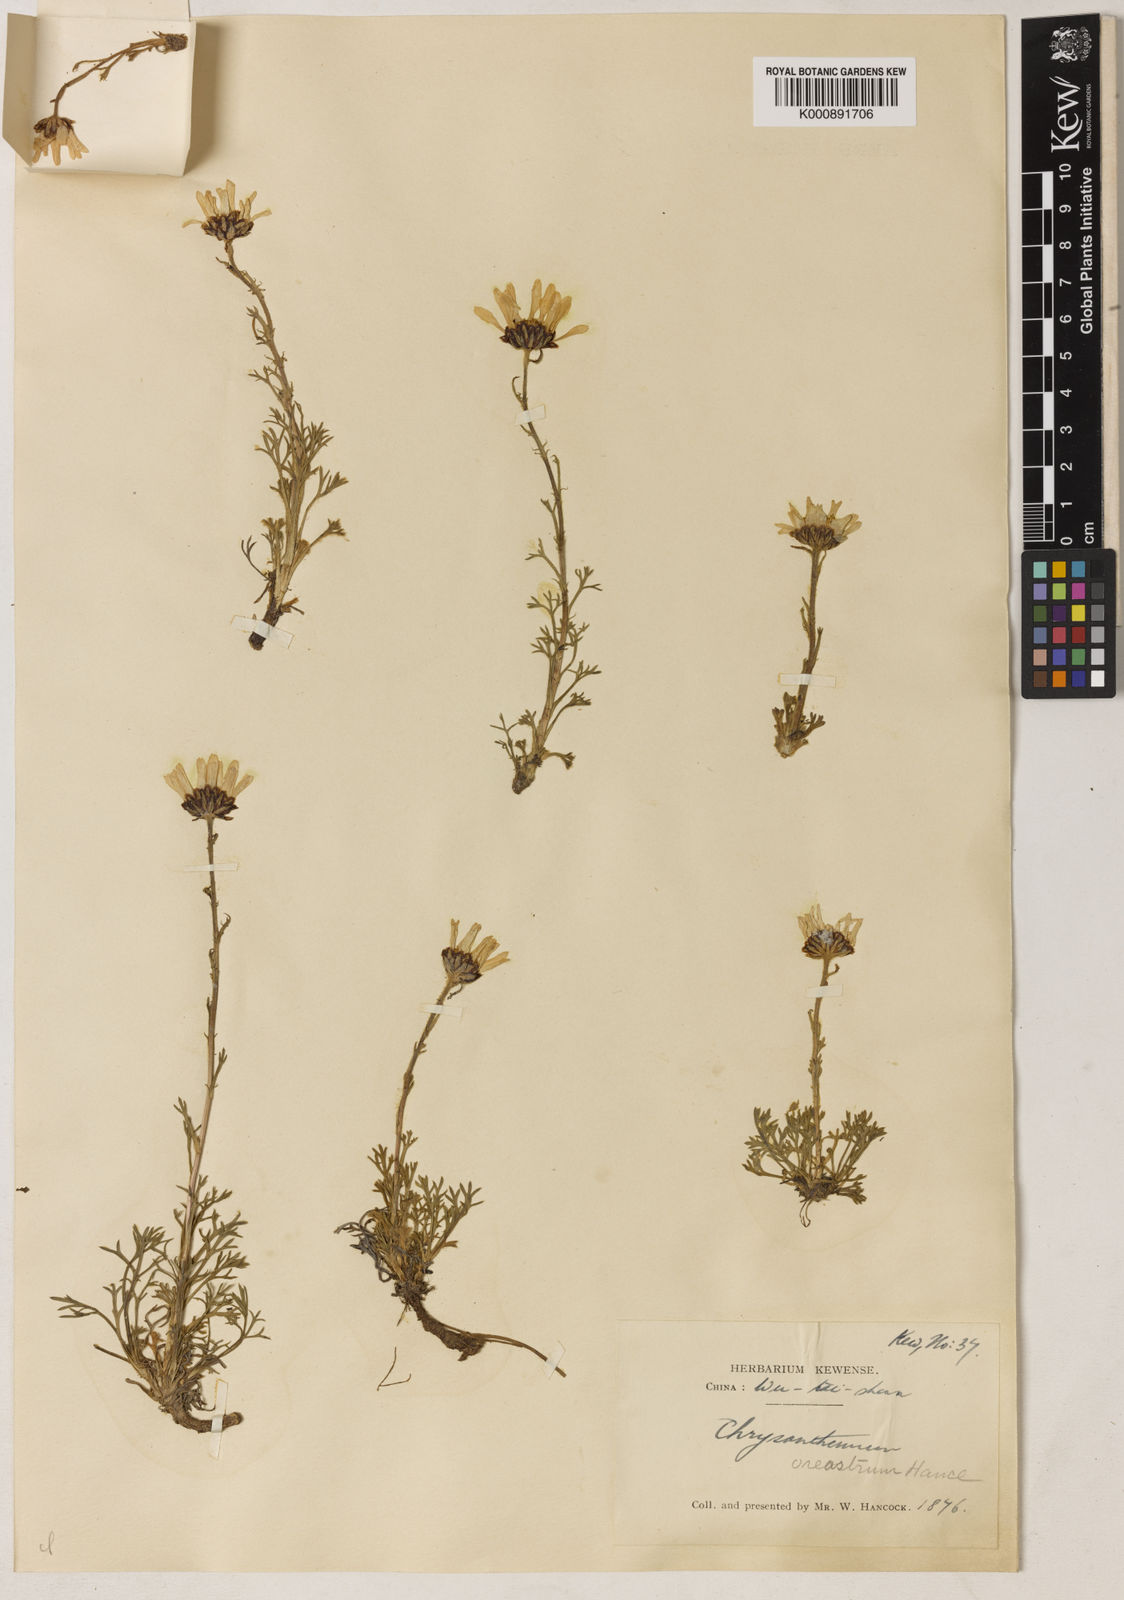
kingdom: Plantae
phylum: Tracheophyta
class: Magnoliopsida
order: Asterales
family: Asteraceae
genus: Chrysanthemum
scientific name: Chrysanthemum oreastrum
